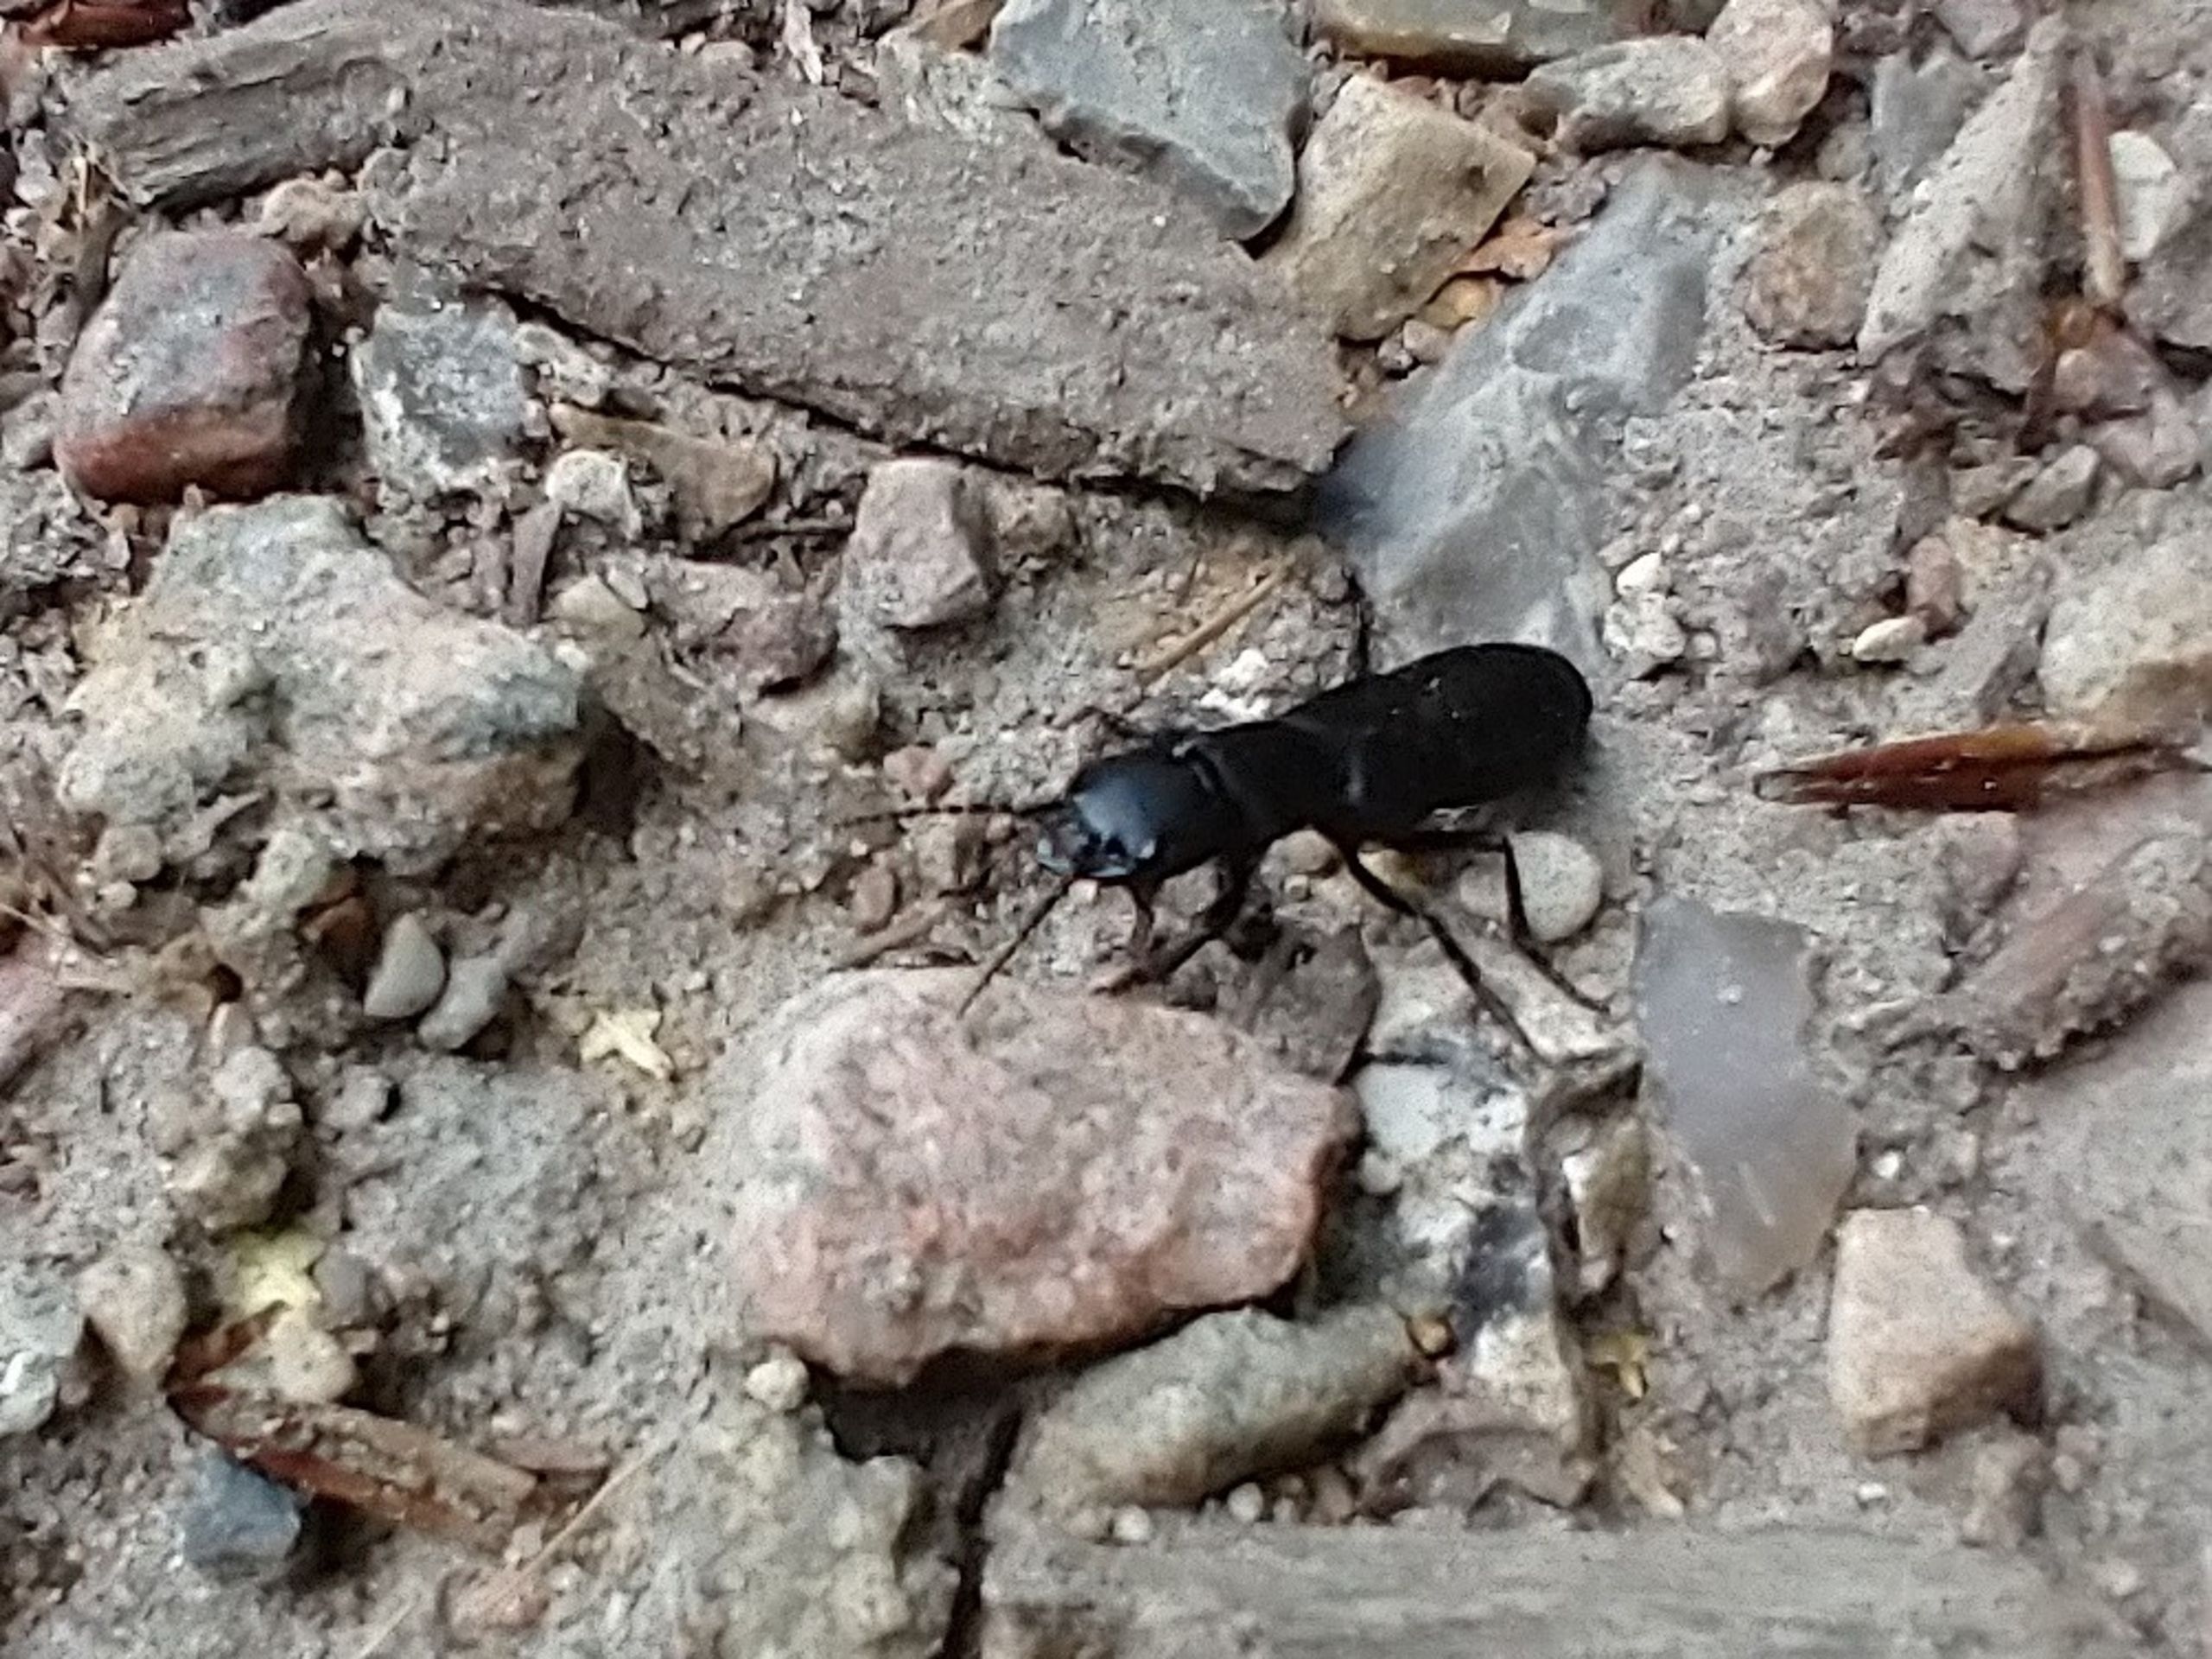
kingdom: Animalia
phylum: Arthropoda
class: Insecta
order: Coleoptera
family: Staphylinidae
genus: Ocypus
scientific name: Ocypus olens
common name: Stor rovbille
